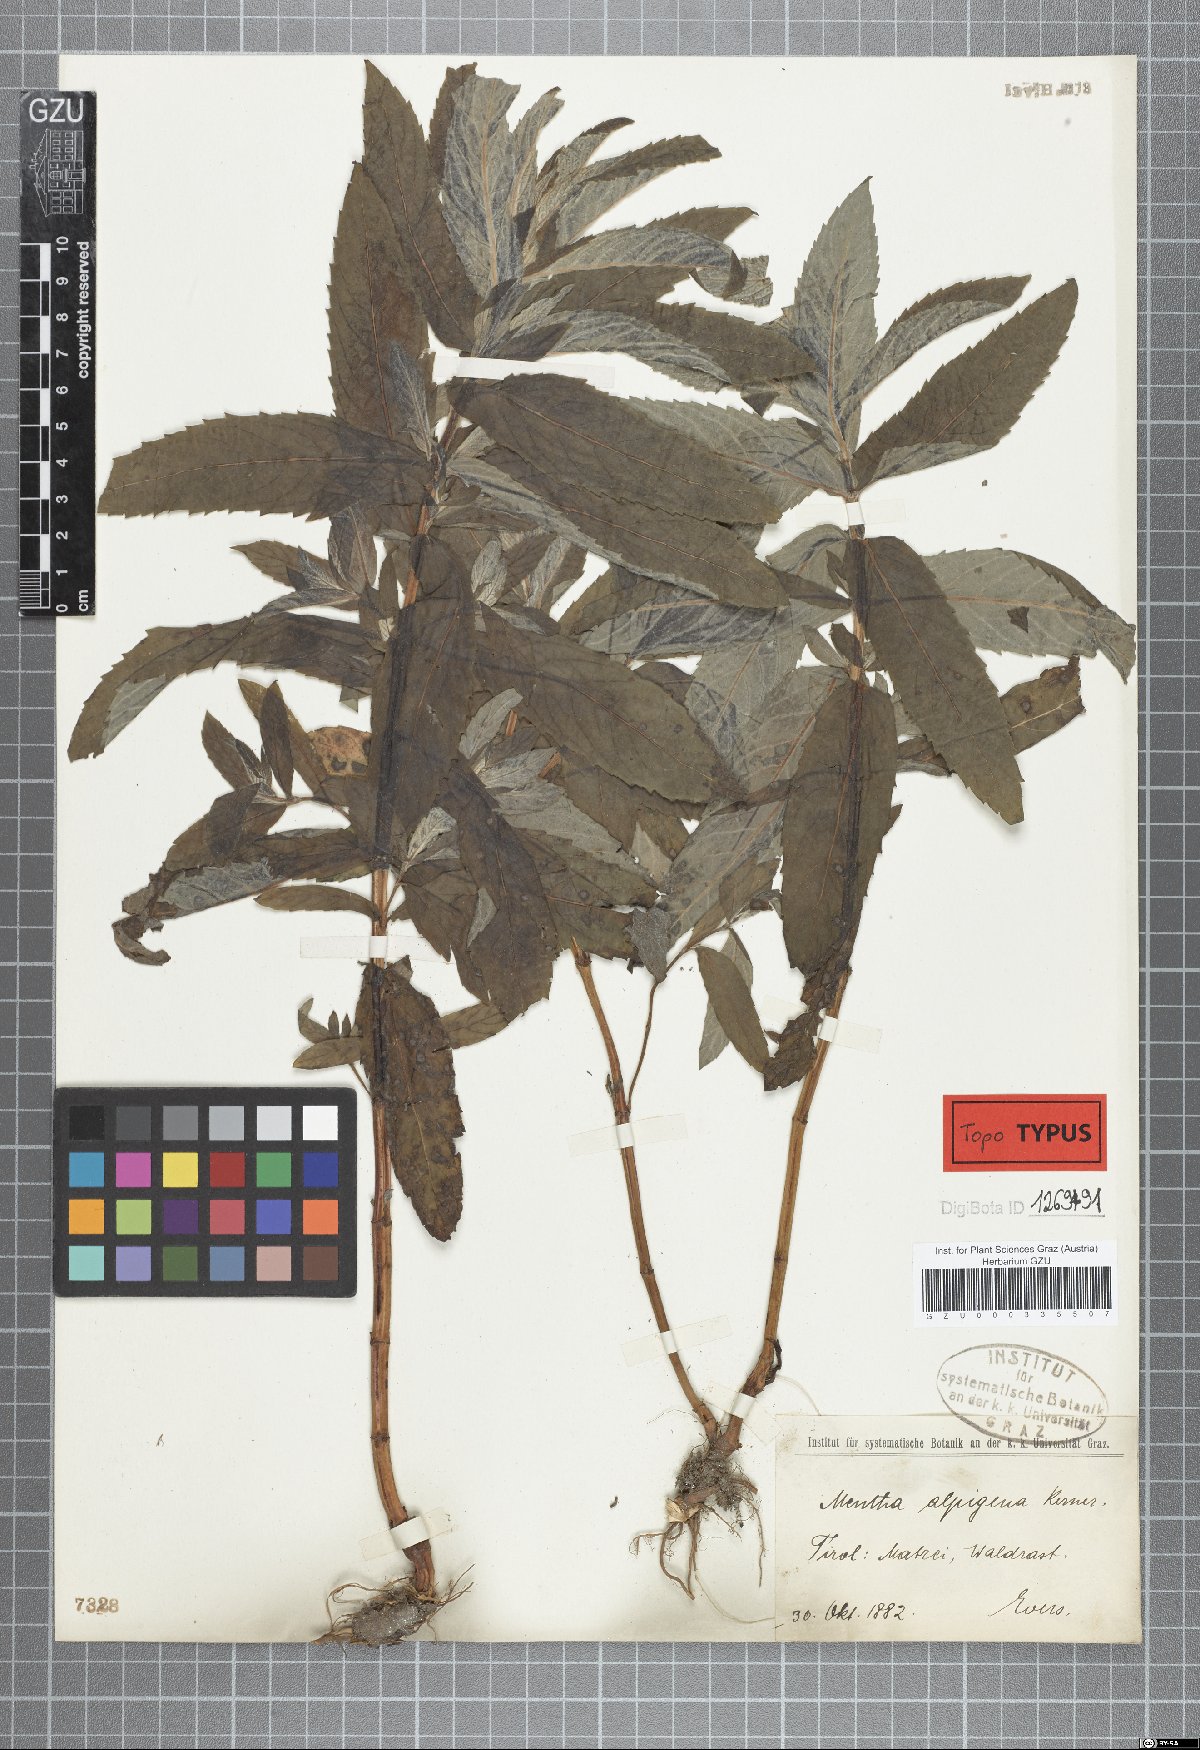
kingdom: Plantae
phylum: Tracheophyta
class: Magnoliopsida
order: Lamiales
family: Lamiaceae
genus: Mentha
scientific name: Mentha longifolia
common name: Horse mint
